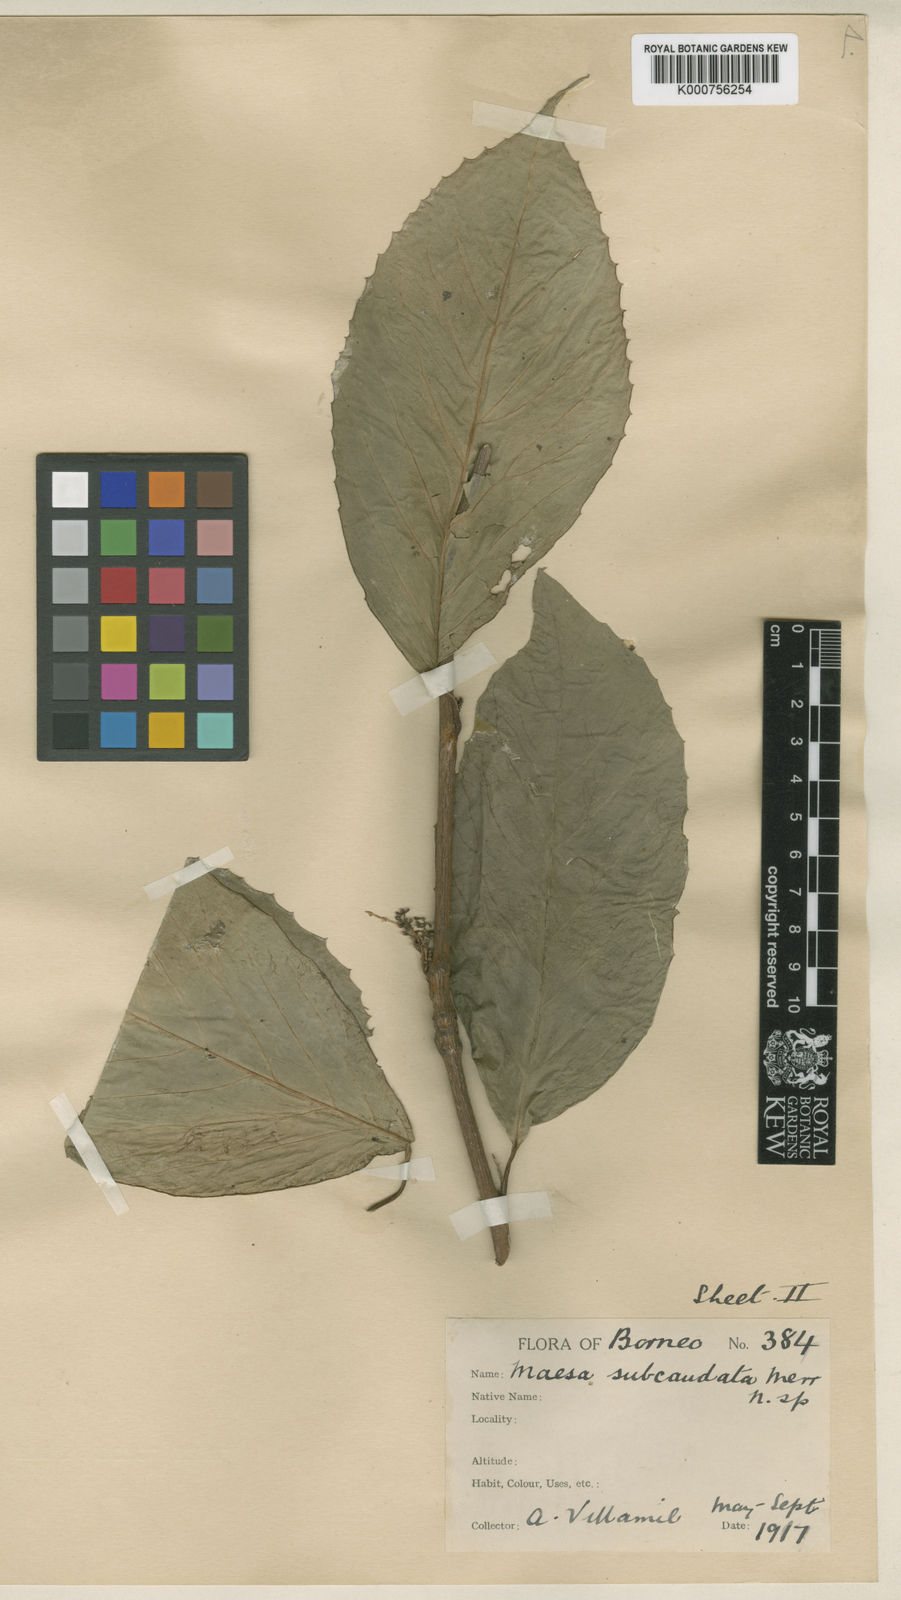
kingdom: Plantae
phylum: Tracheophyta
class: Magnoliopsida
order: Ericales
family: Primulaceae
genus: Maesa
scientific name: Maesa macrocarpa
